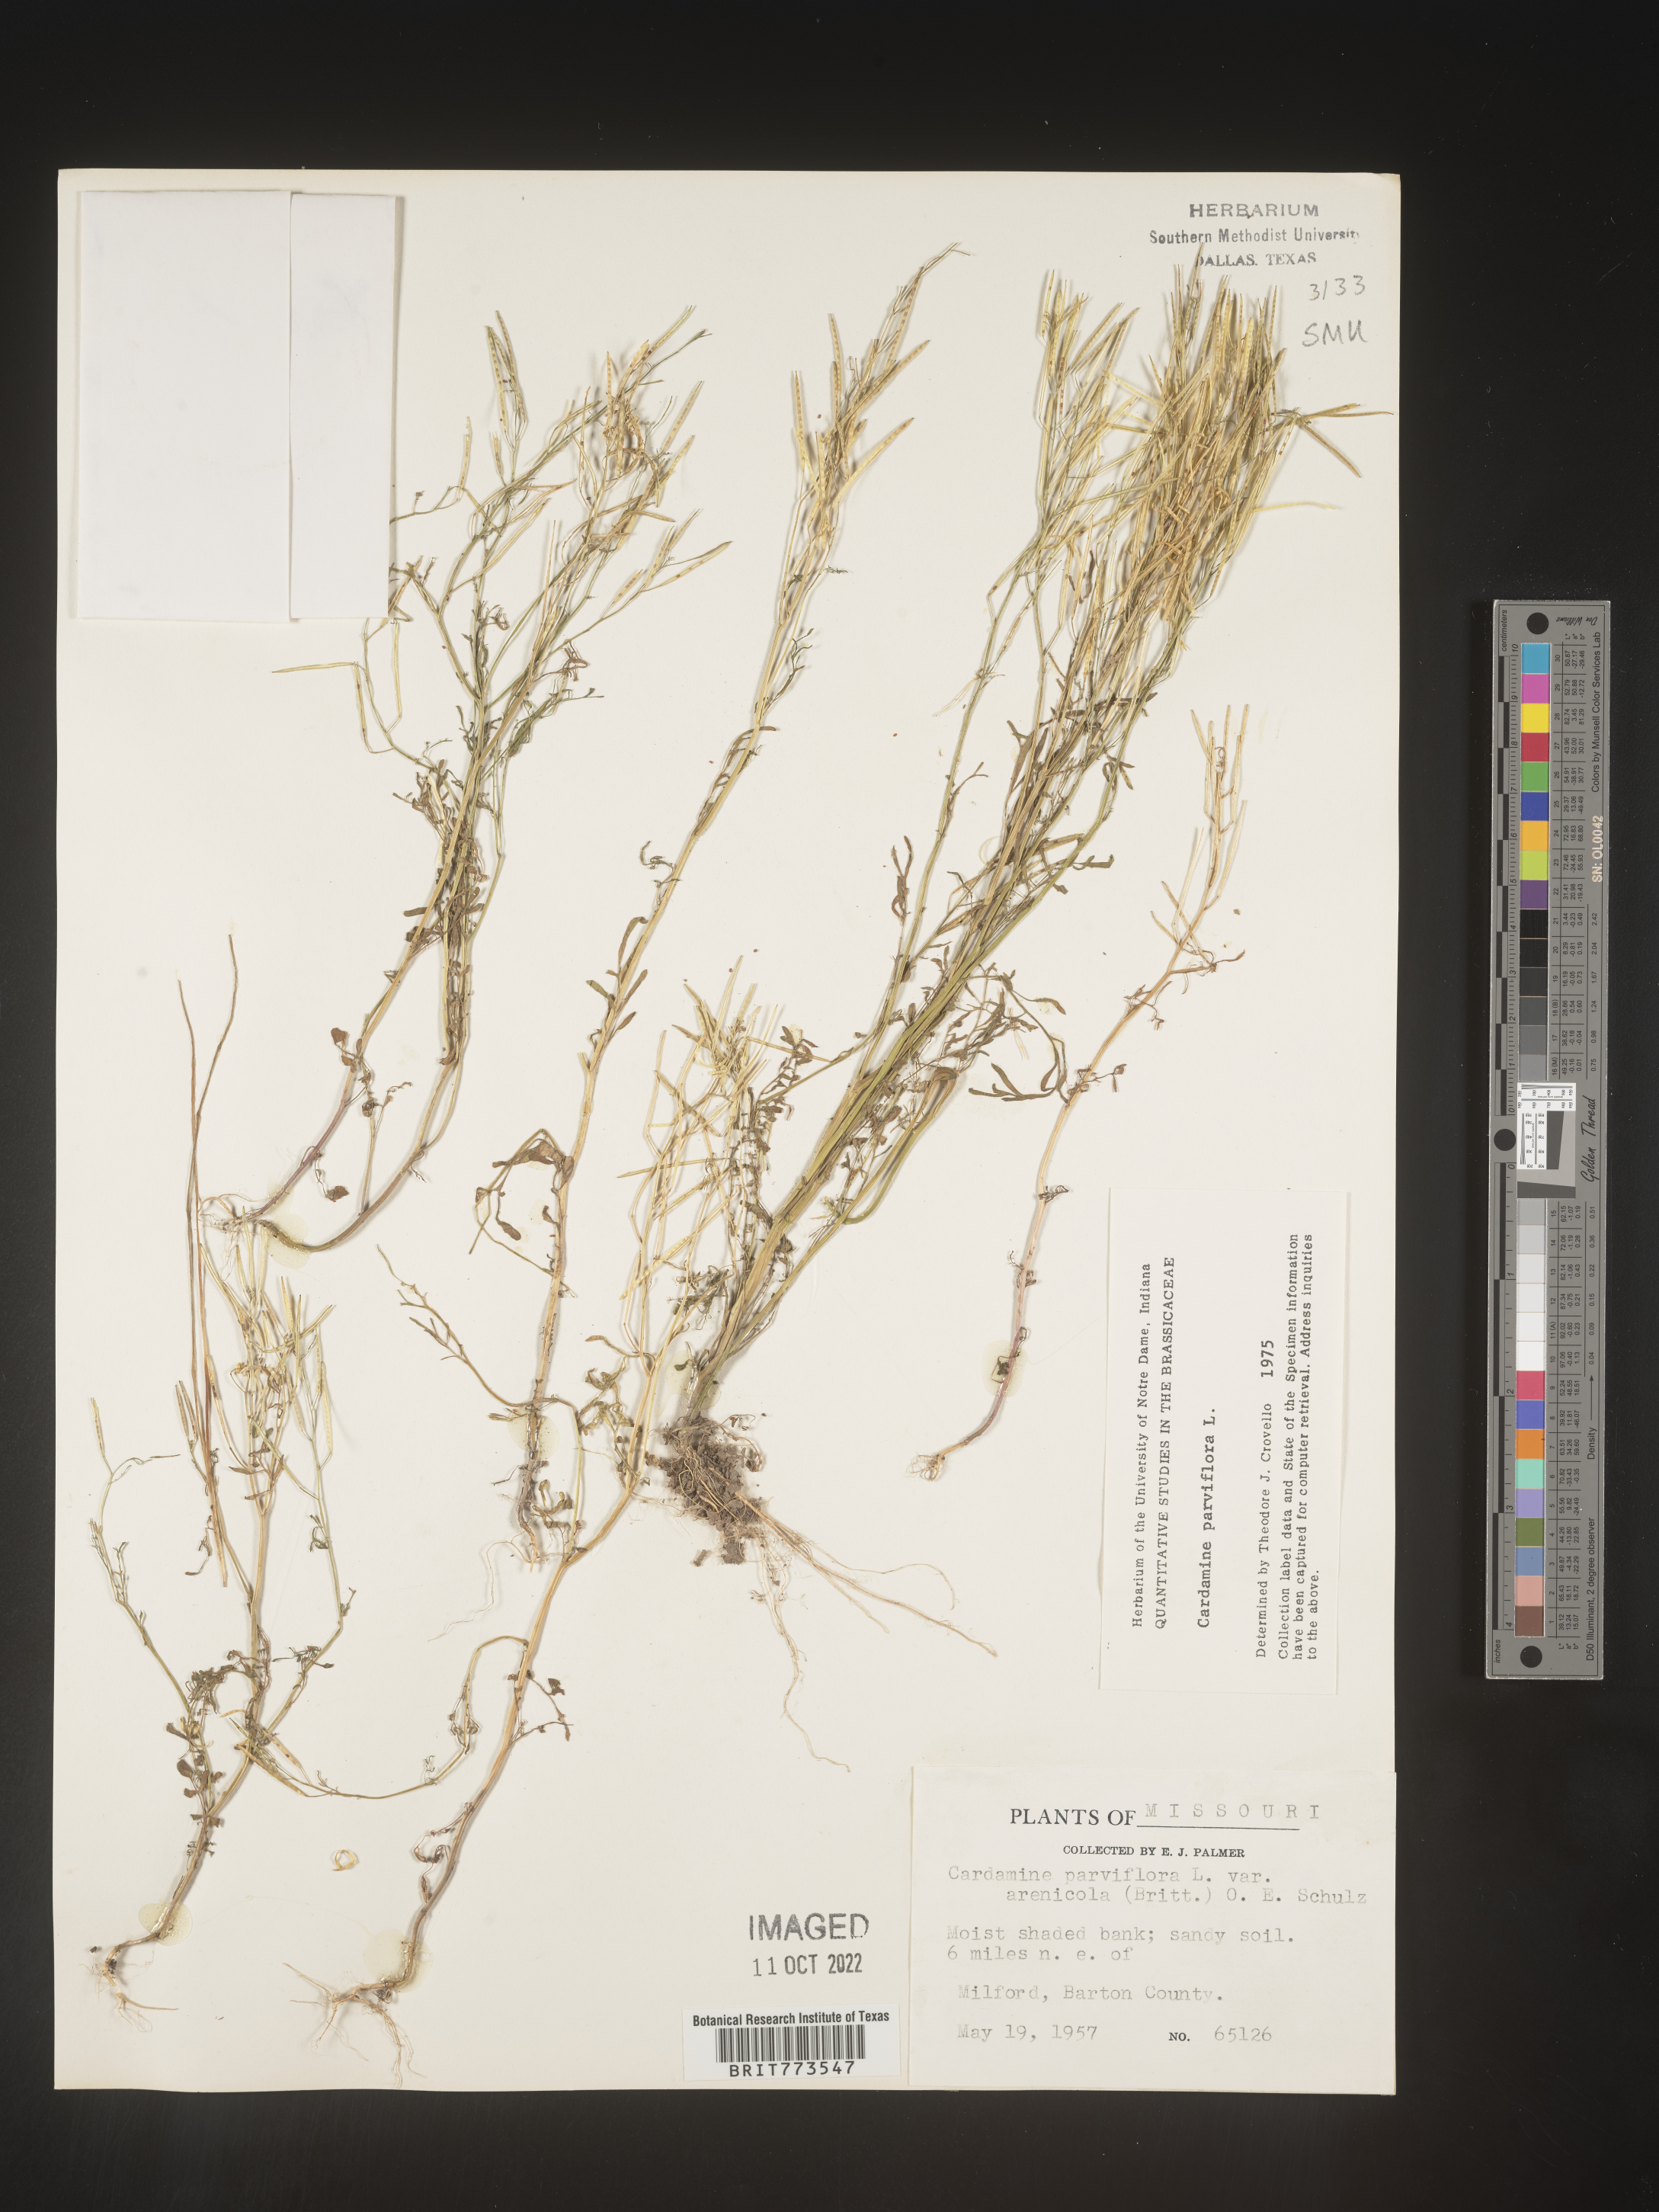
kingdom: Plantae
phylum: Tracheophyta
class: Magnoliopsida
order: Brassicales
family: Brassicaceae
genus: Cardamine
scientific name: Cardamine parviflora
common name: Sand bittercress
